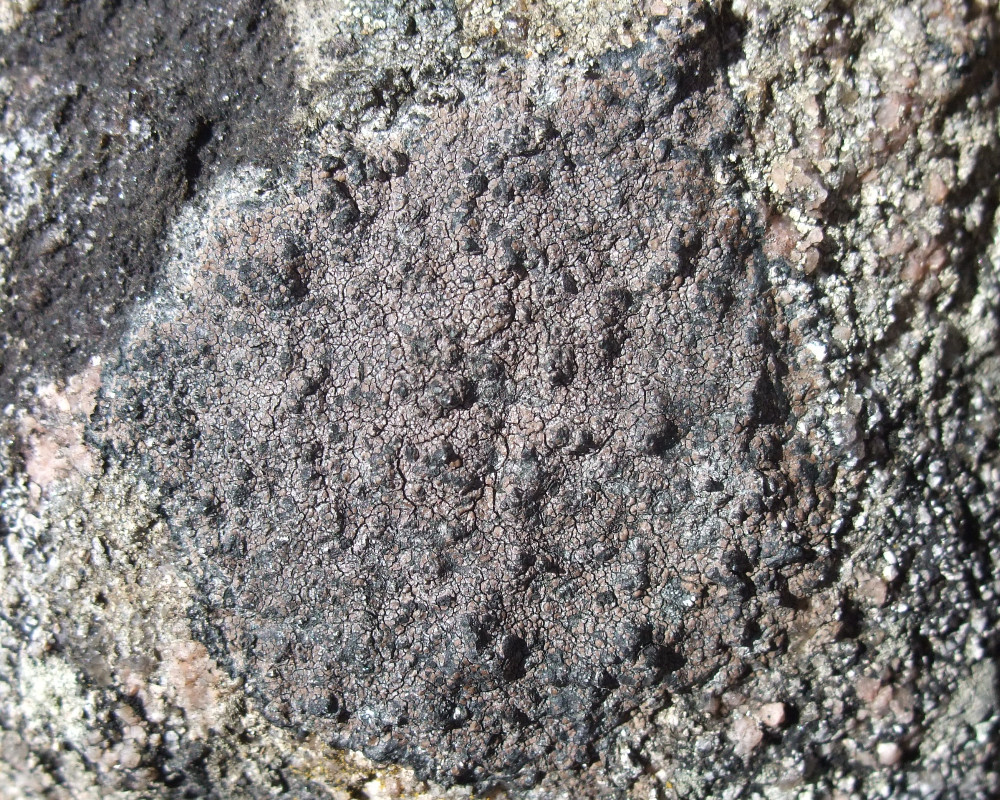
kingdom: Fungi
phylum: Ascomycota
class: Lecanoromycetes
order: Lecideales
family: Lecideaceae
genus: Lecidea
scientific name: Lecidea fuscoatra
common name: rudret skivelav
